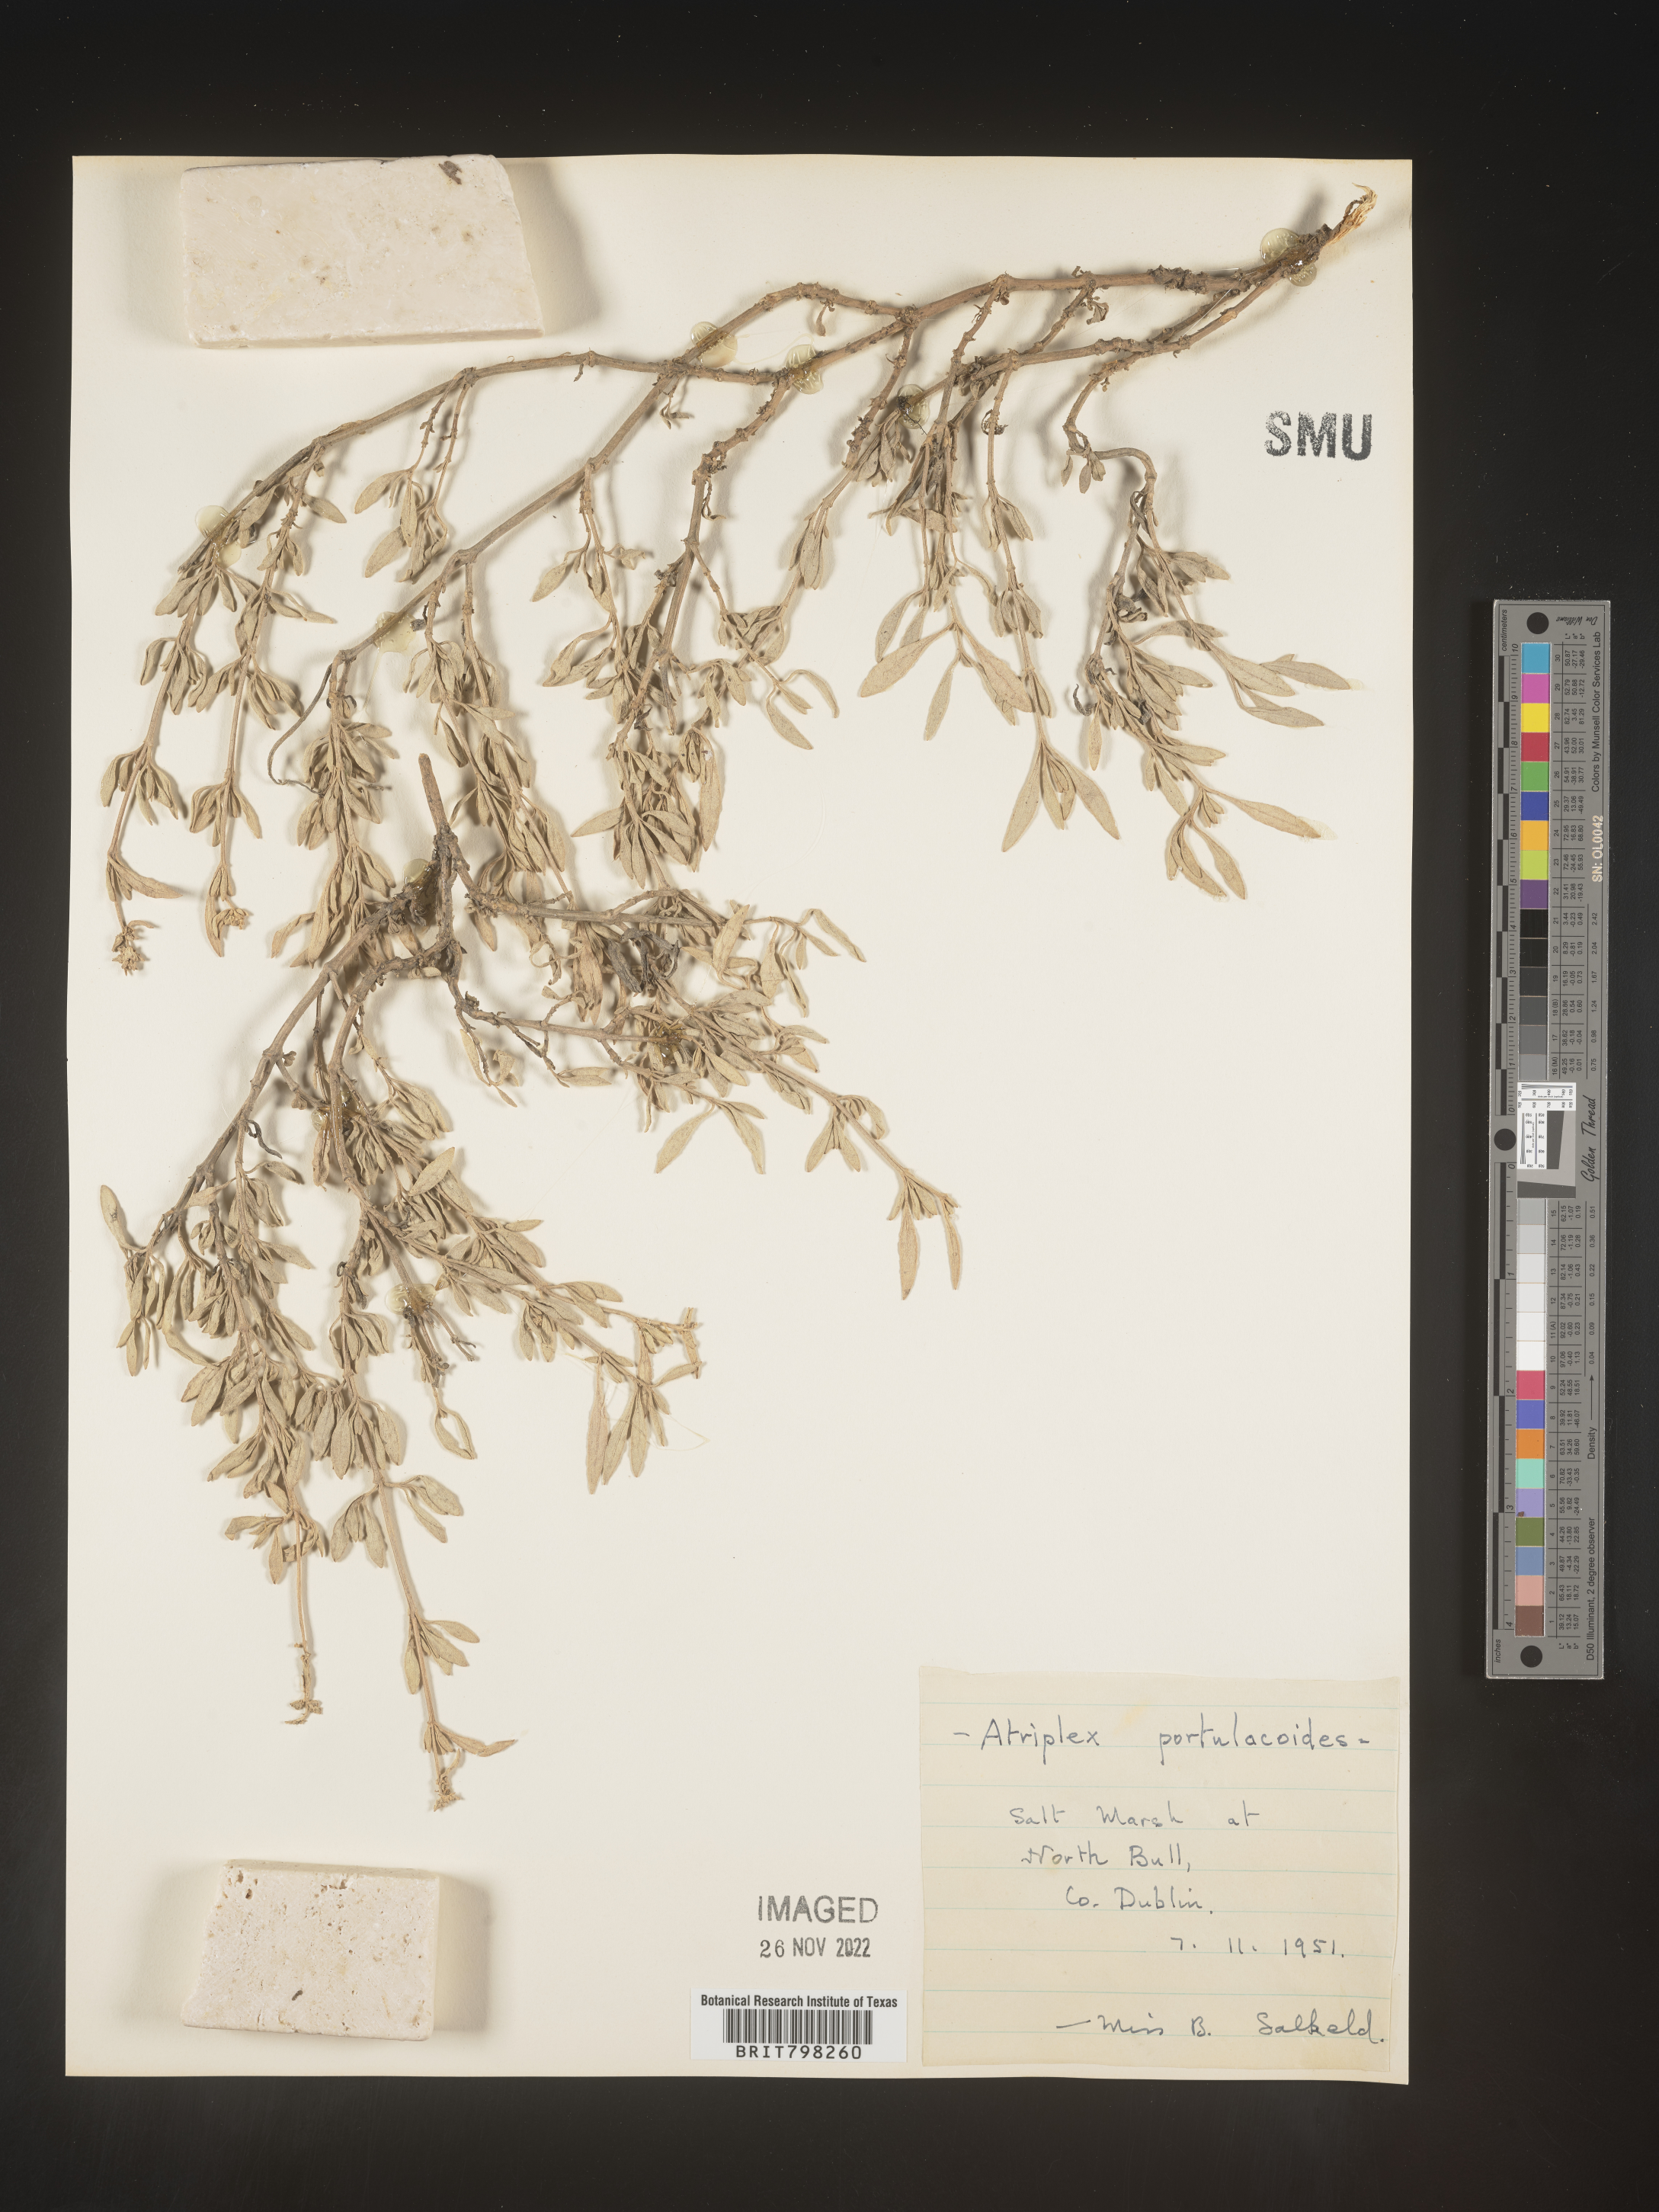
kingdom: Plantae
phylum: Tracheophyta
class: Magnoliopsida
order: Caryophyllales
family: Amaranthaceae
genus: Atriplex
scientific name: Atriplex
